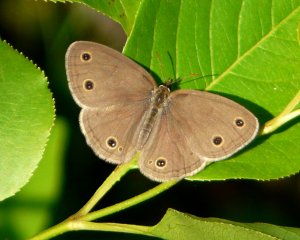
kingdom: Animalia
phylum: Arthropoda
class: Insecta
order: Lepidoptera
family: Nymphalidae
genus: Euptychia
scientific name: Euptychia cymela
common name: Little Wood Satyr
